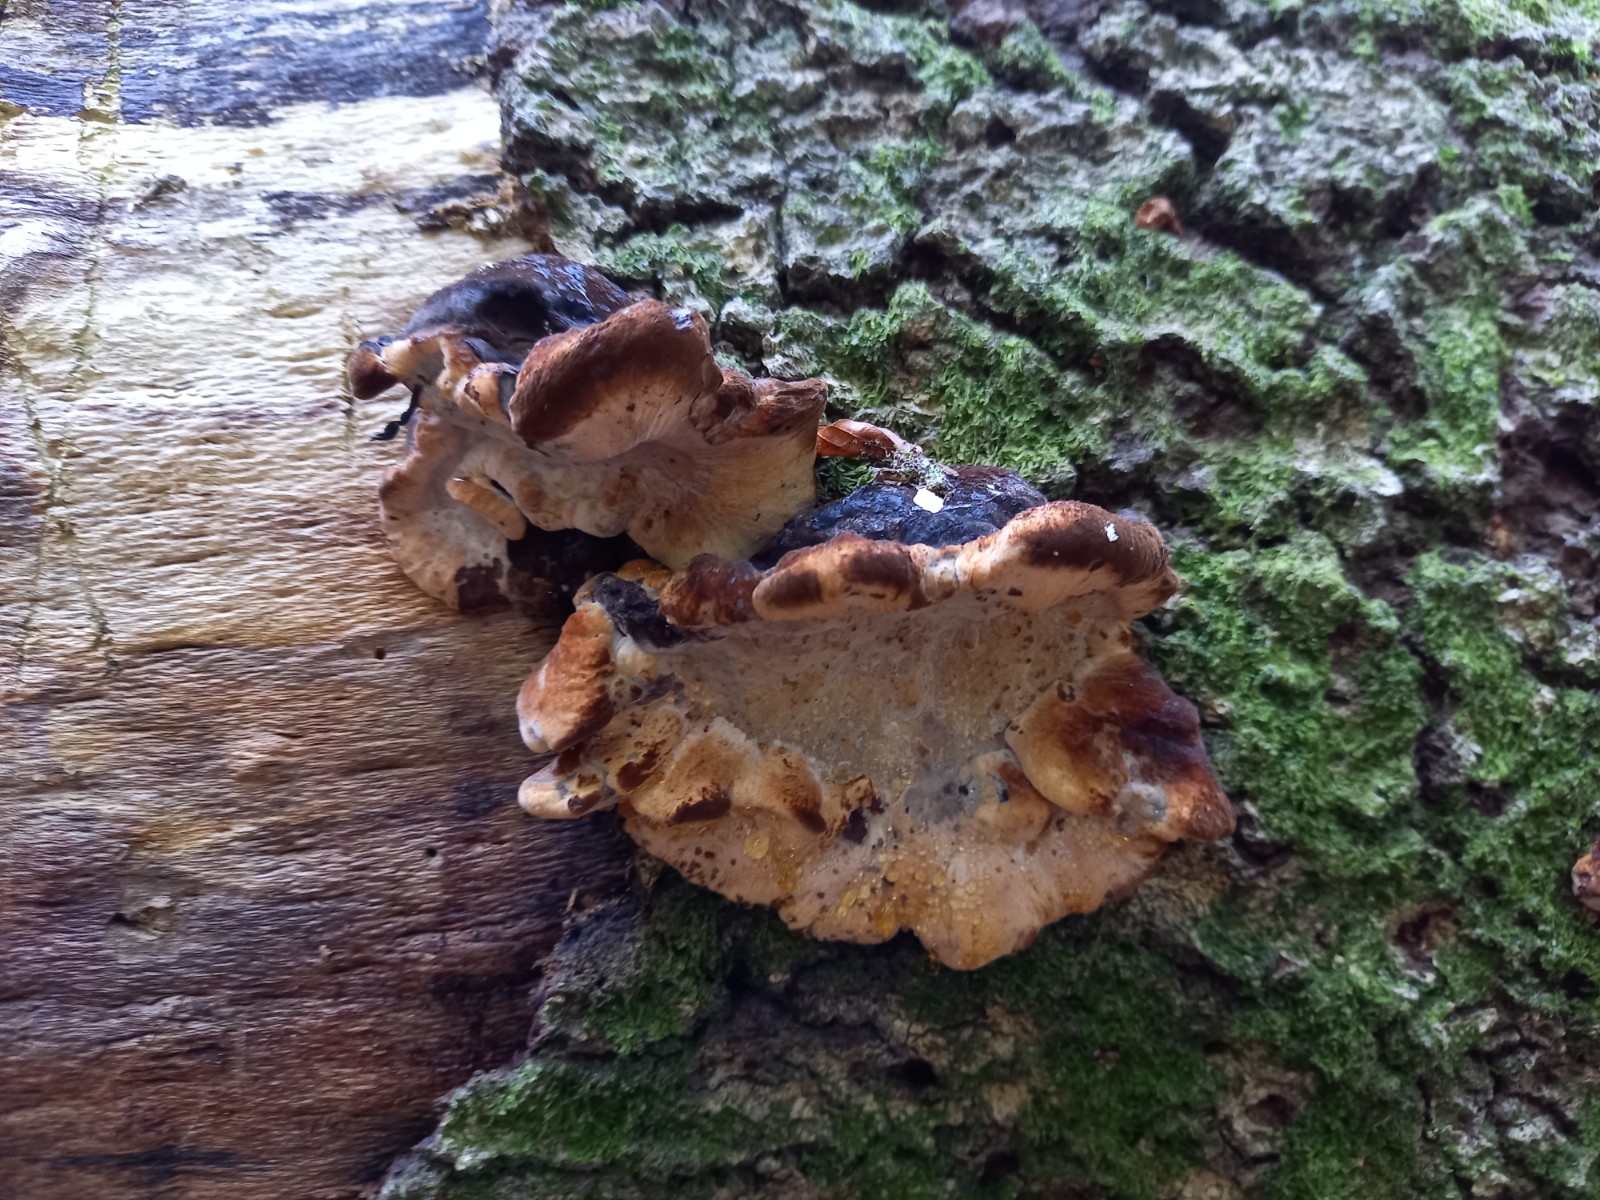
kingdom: Fungi
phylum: Basidiomycota
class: Agaricomycetes
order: Polyporales
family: Ischnodermataceae
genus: Ischnoderma
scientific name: Ischnoderma resinosum
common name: løv-tjæreporesvamp
